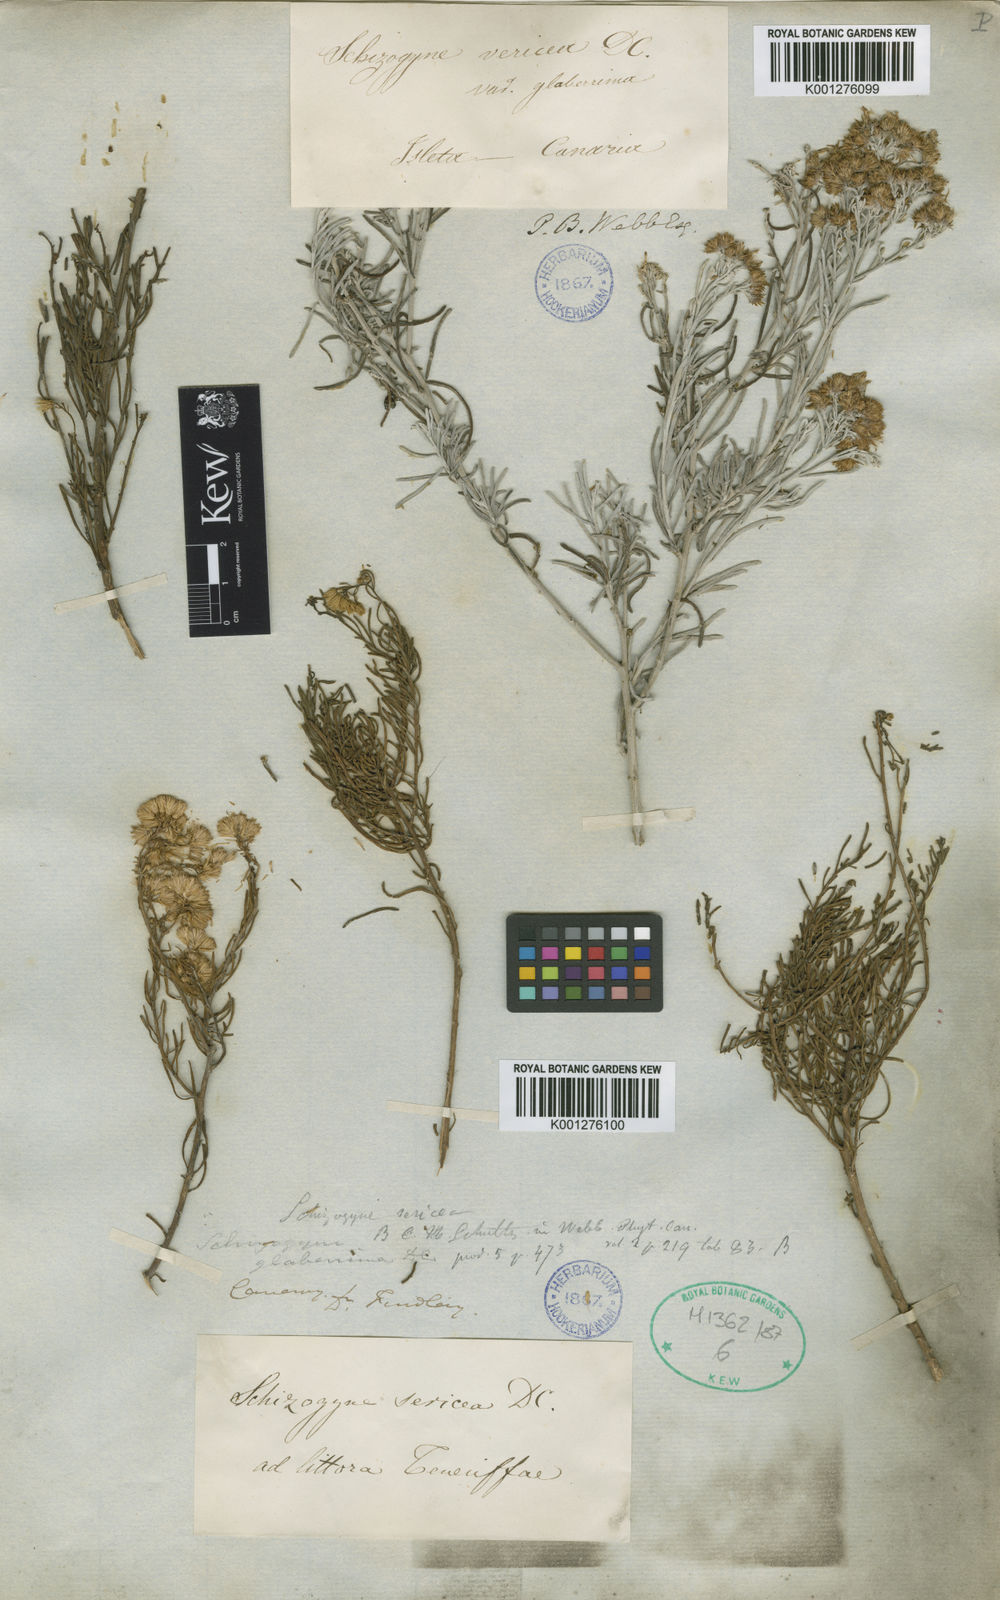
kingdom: Plantae
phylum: Tracheophyta
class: Magnoliopsida
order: Asterales
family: Asteraceae
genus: Schizogyne
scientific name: Schizogyne sericea
